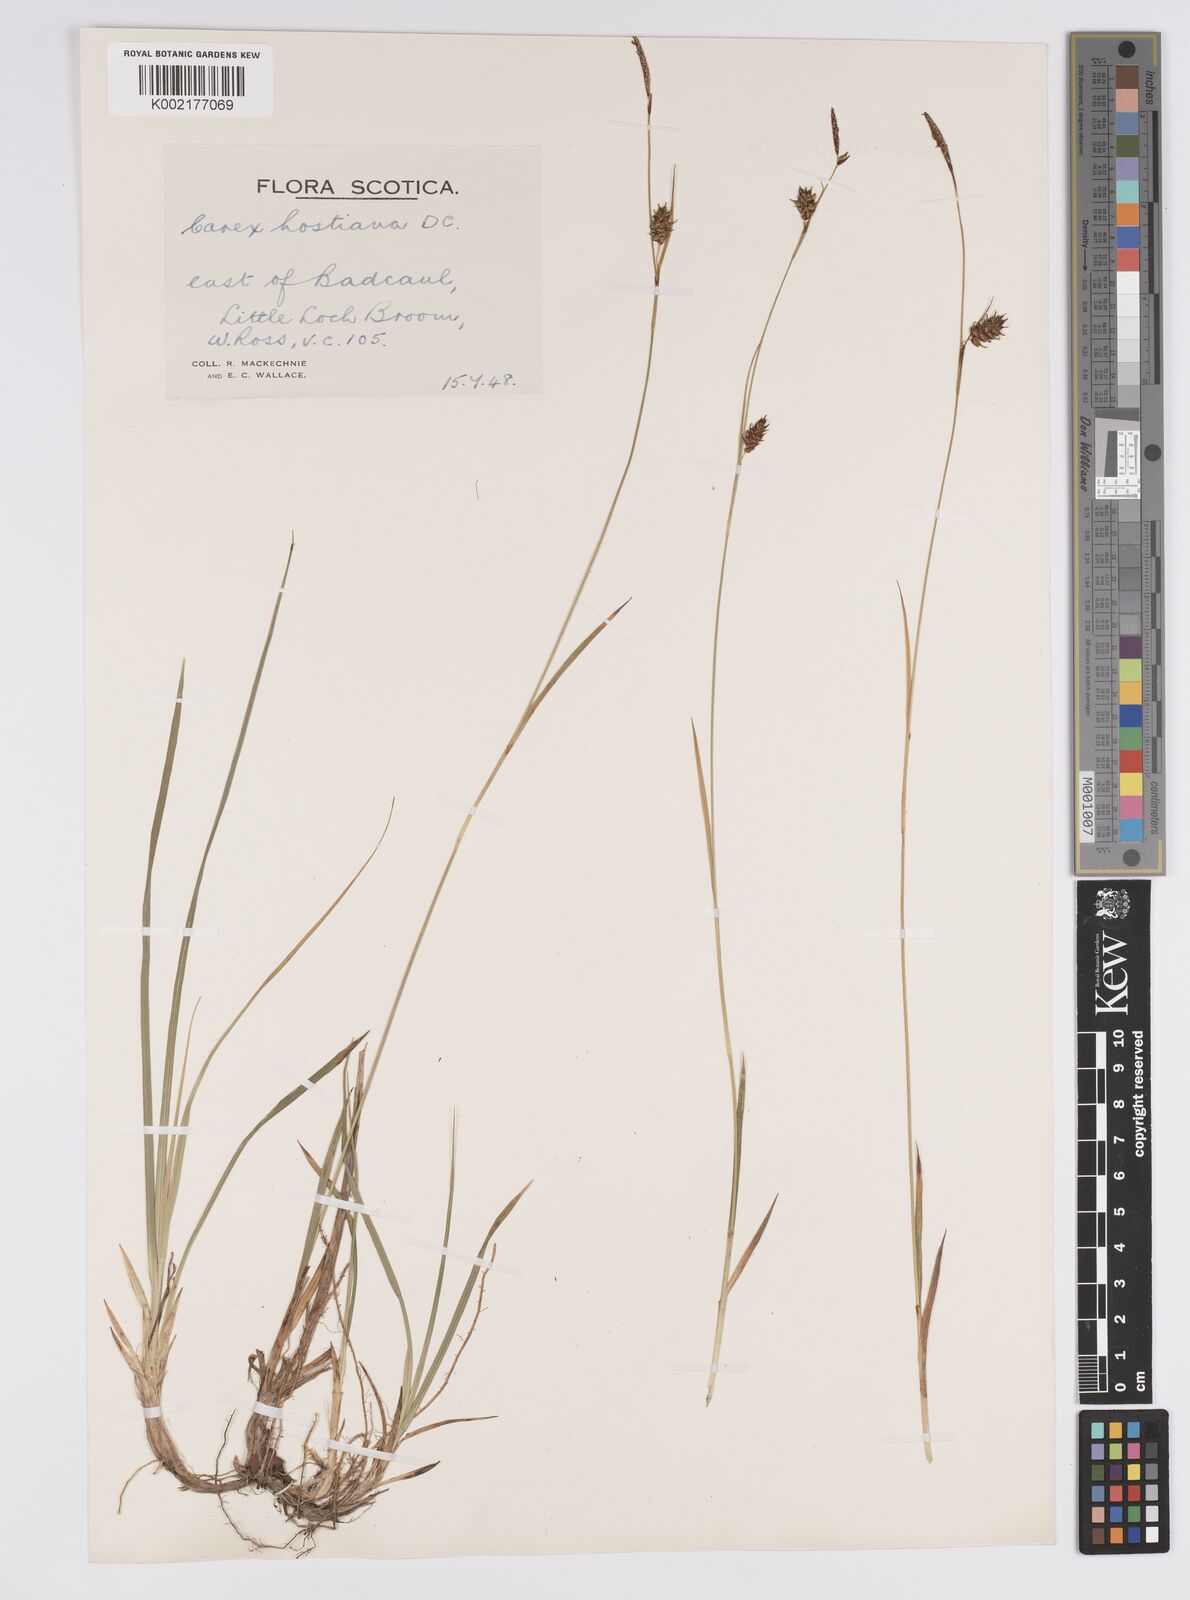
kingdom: Plantae
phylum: Tracheophyta
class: Liliopsida
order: Poales
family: Cyperaceae
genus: Carex
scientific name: Carex hostiana
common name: Tawny sedge
